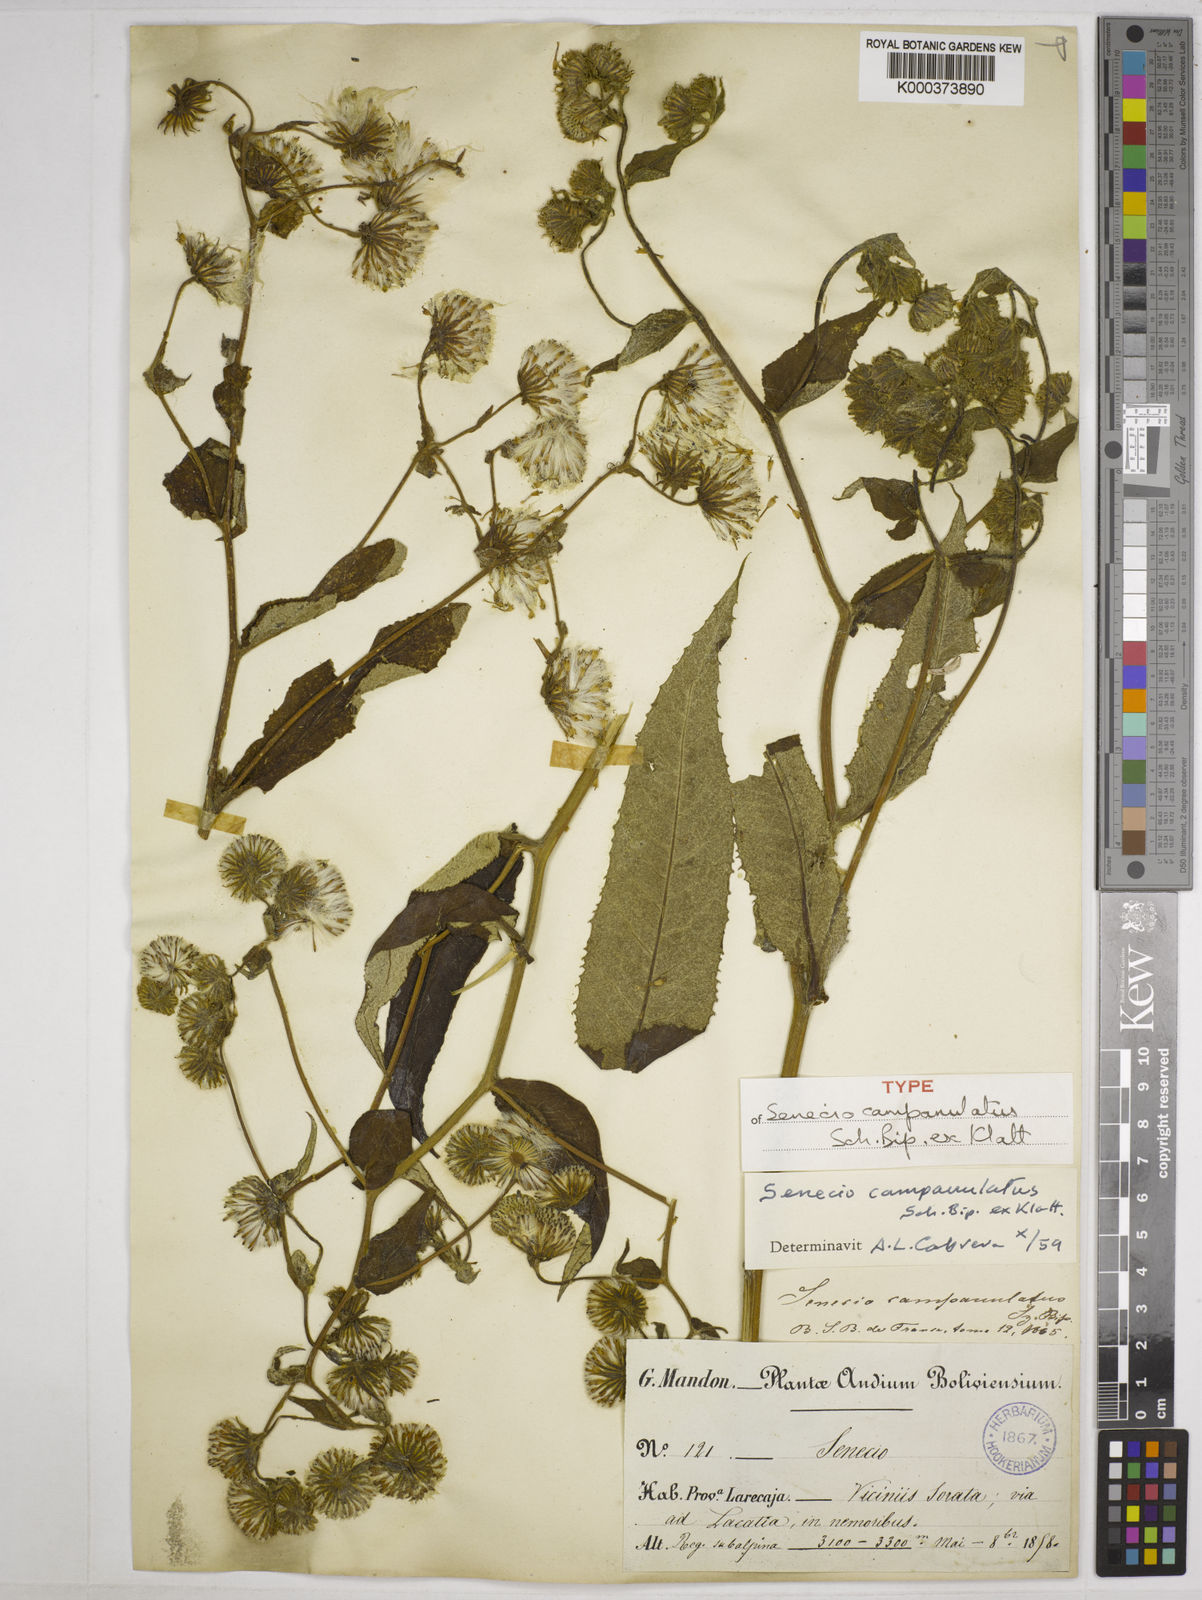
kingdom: Plantae
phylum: Tracheophyta
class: Magnoliopsida
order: Asterales
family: Asteraceae
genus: Aetheolaena
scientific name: Aetheolaena betonicifolia
